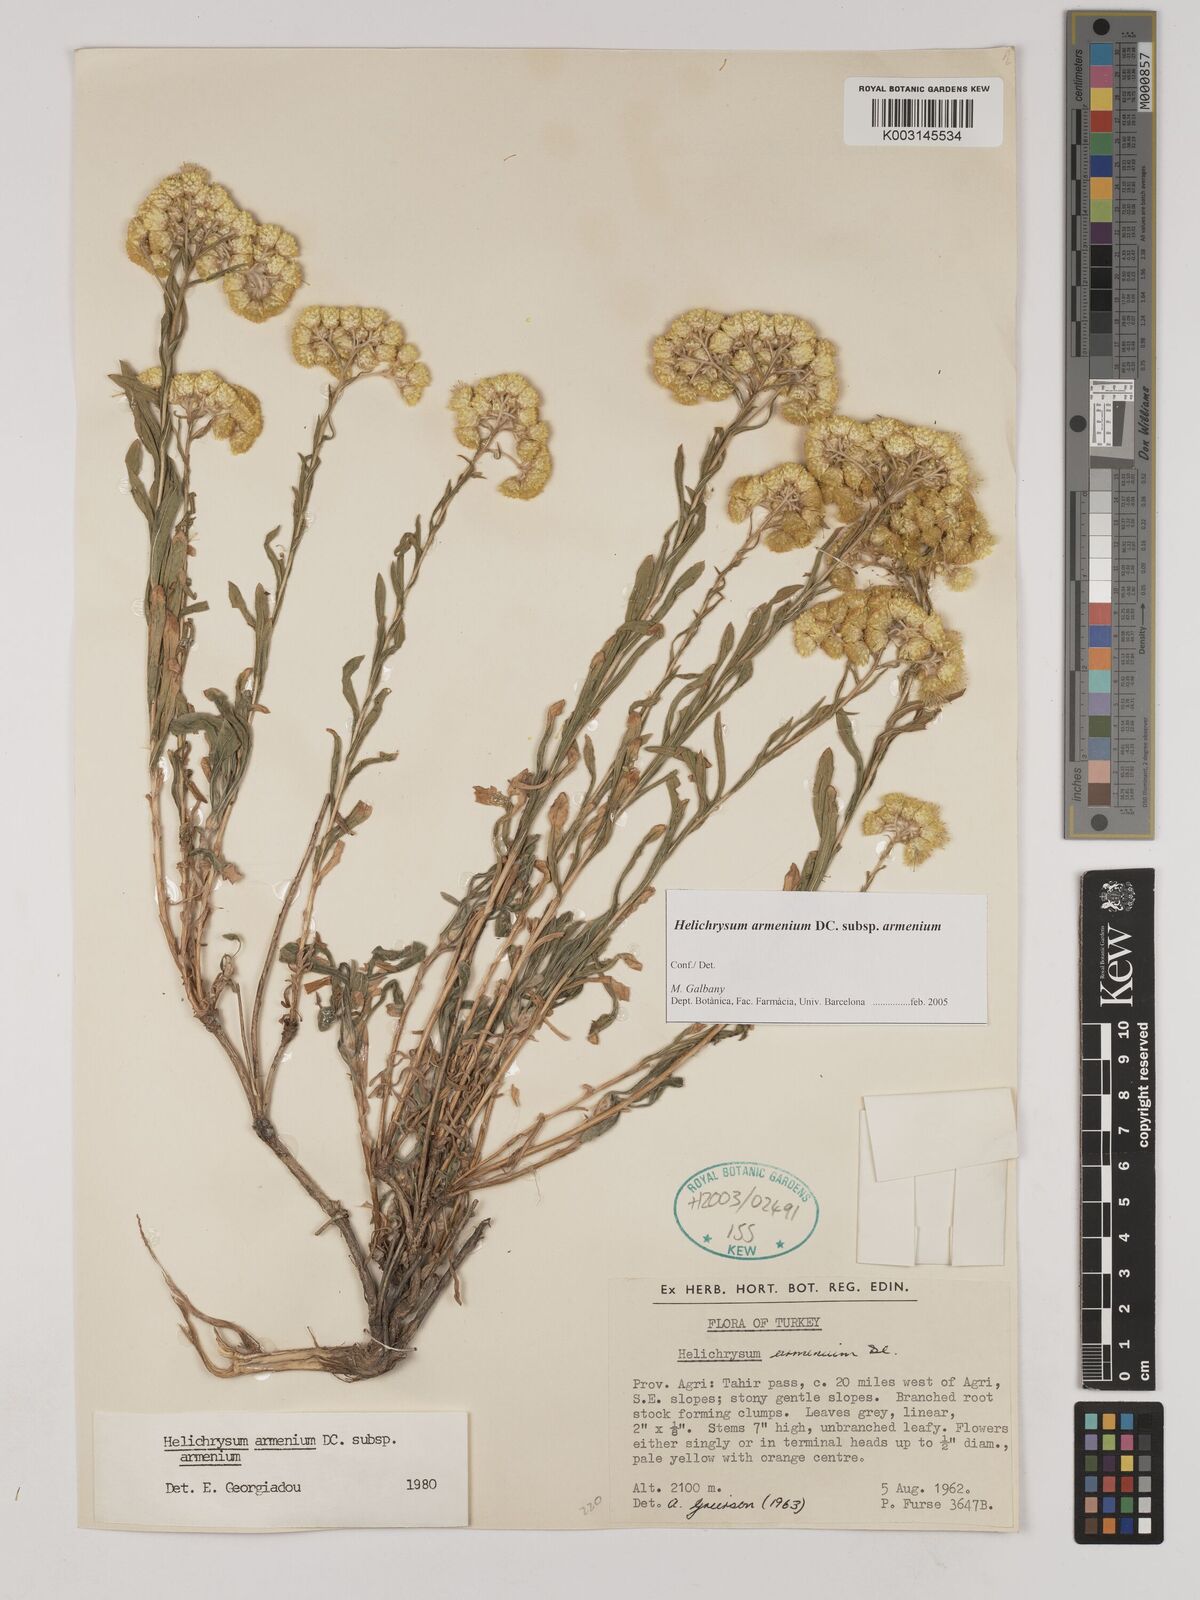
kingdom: Plantae
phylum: Tracheophyta
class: Magnoliopsida
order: Asterales
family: Asteraceae
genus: Helichrysum
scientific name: Helichrysum armenium
